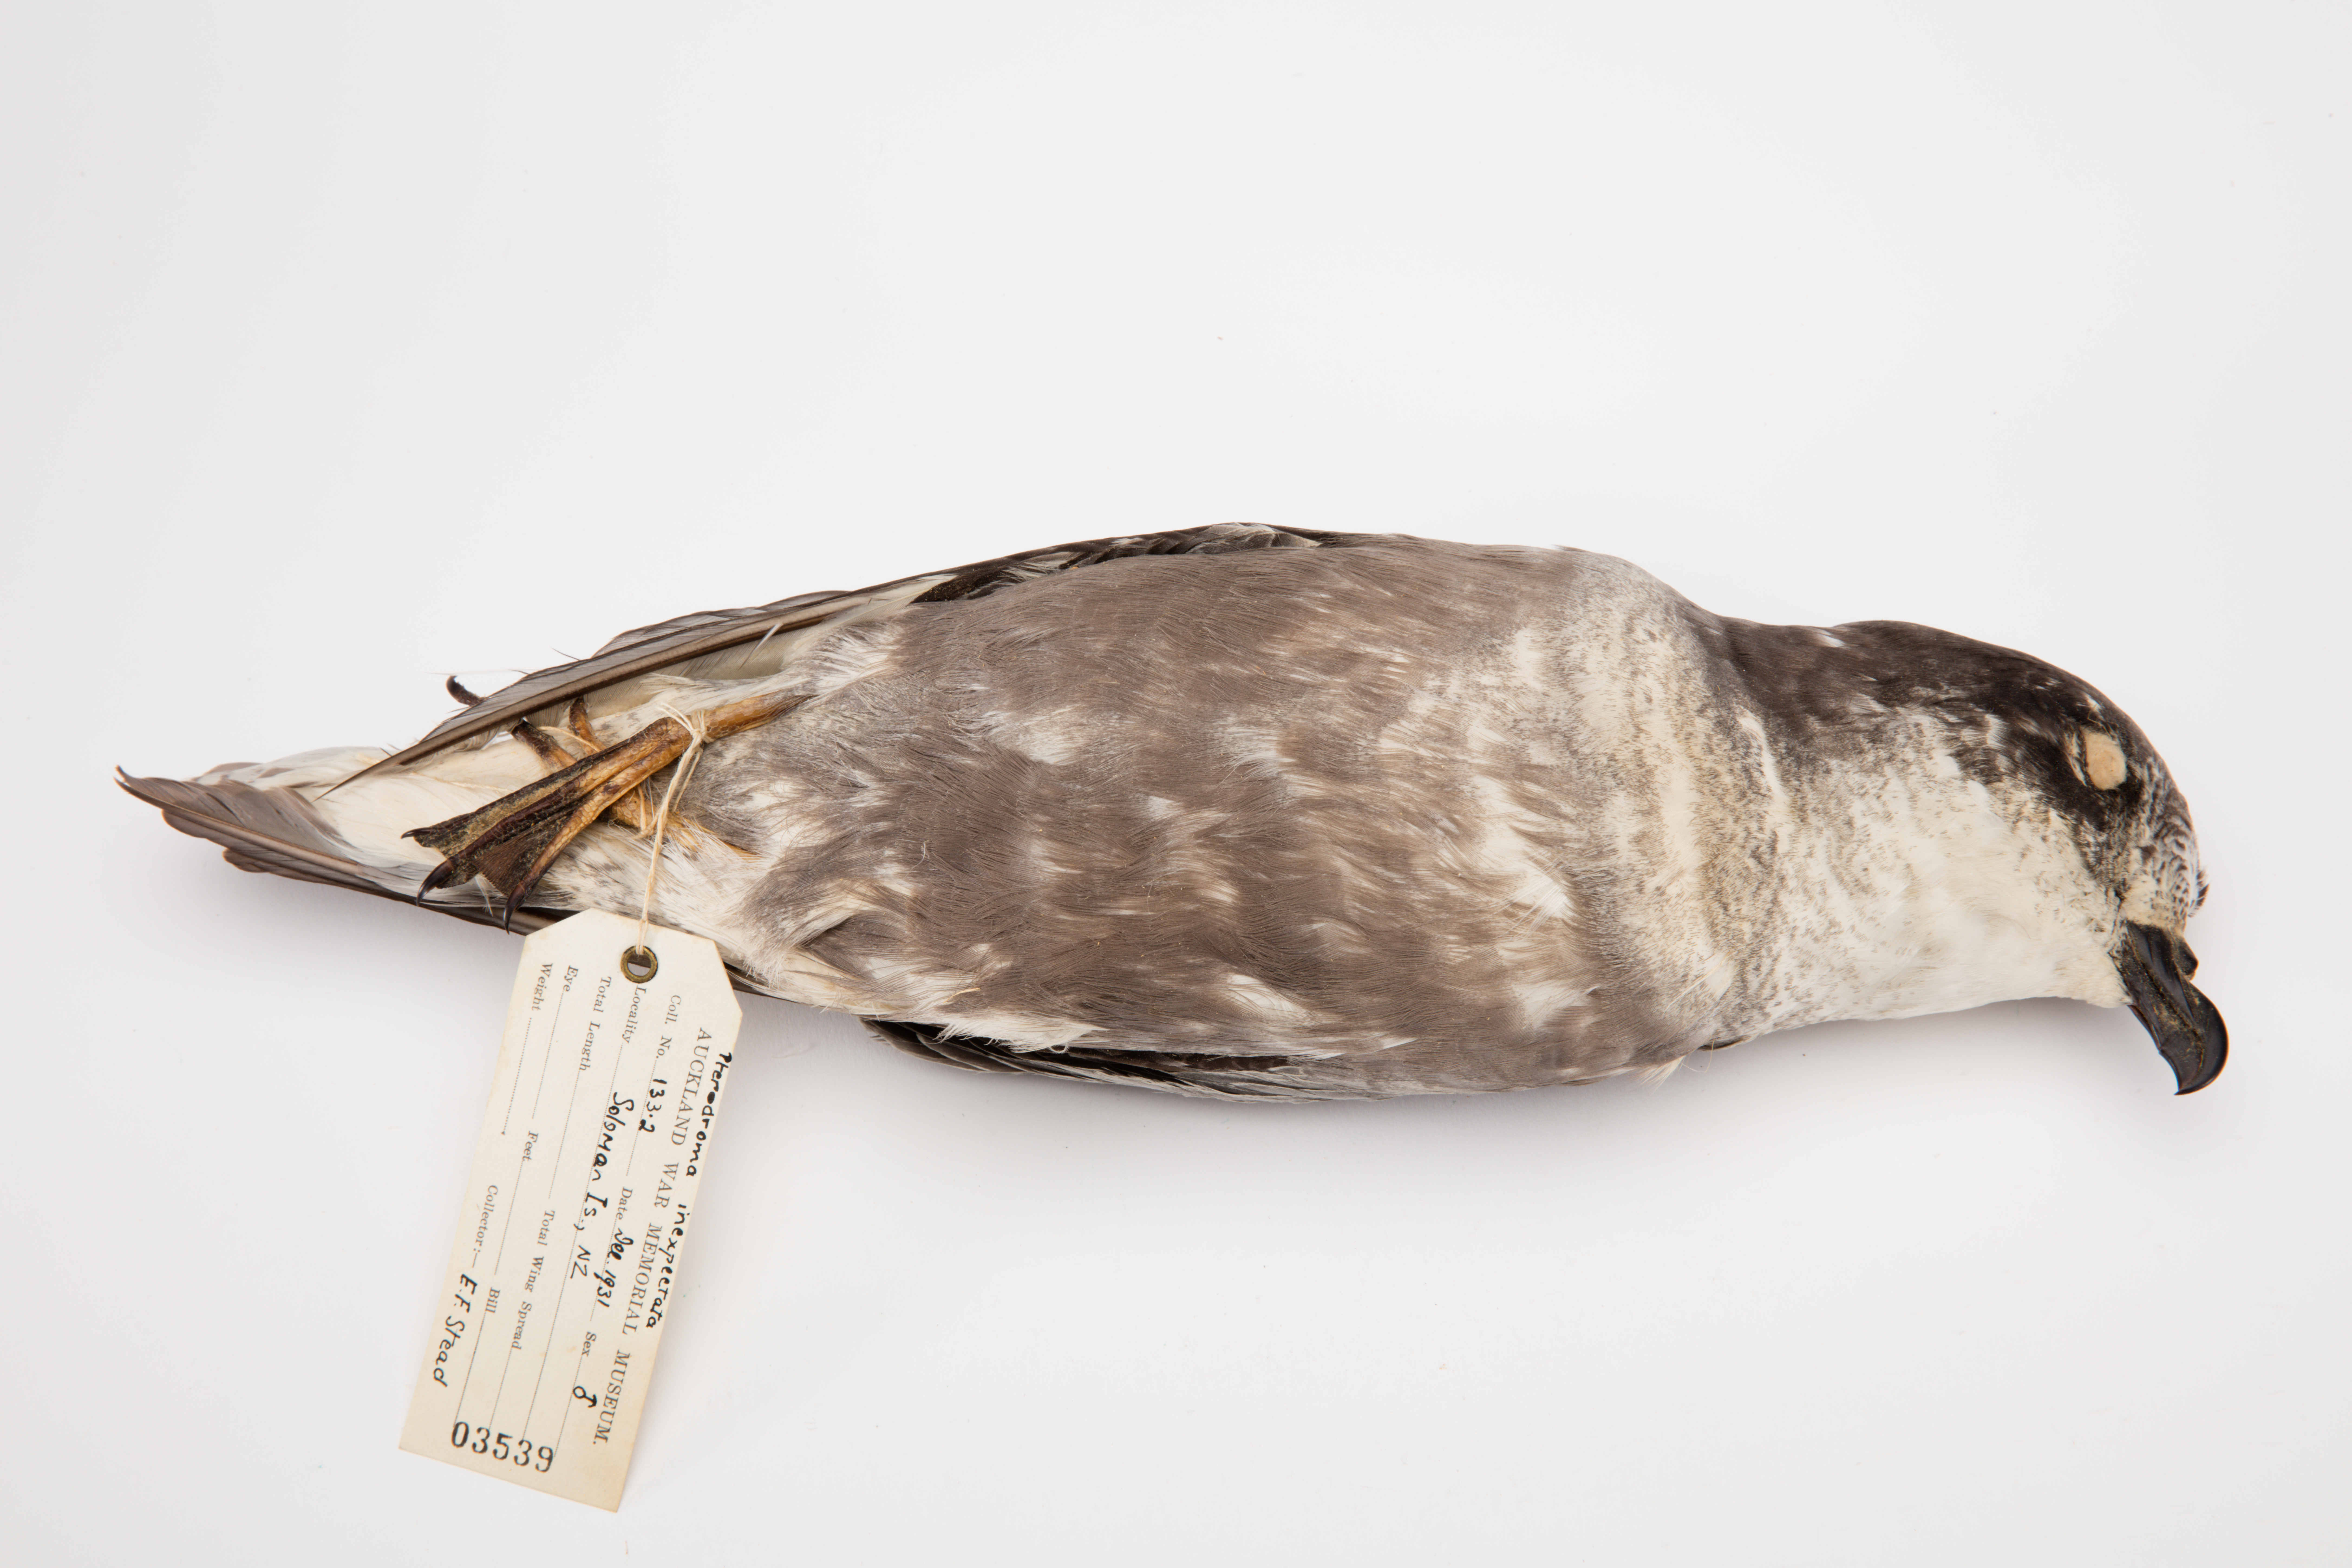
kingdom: Animalia
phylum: Chordata
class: Aves
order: Procellariiformes
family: Procellariidae
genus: Pterodroma
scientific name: Pterodroma inexpectata
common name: Mottled petrel
